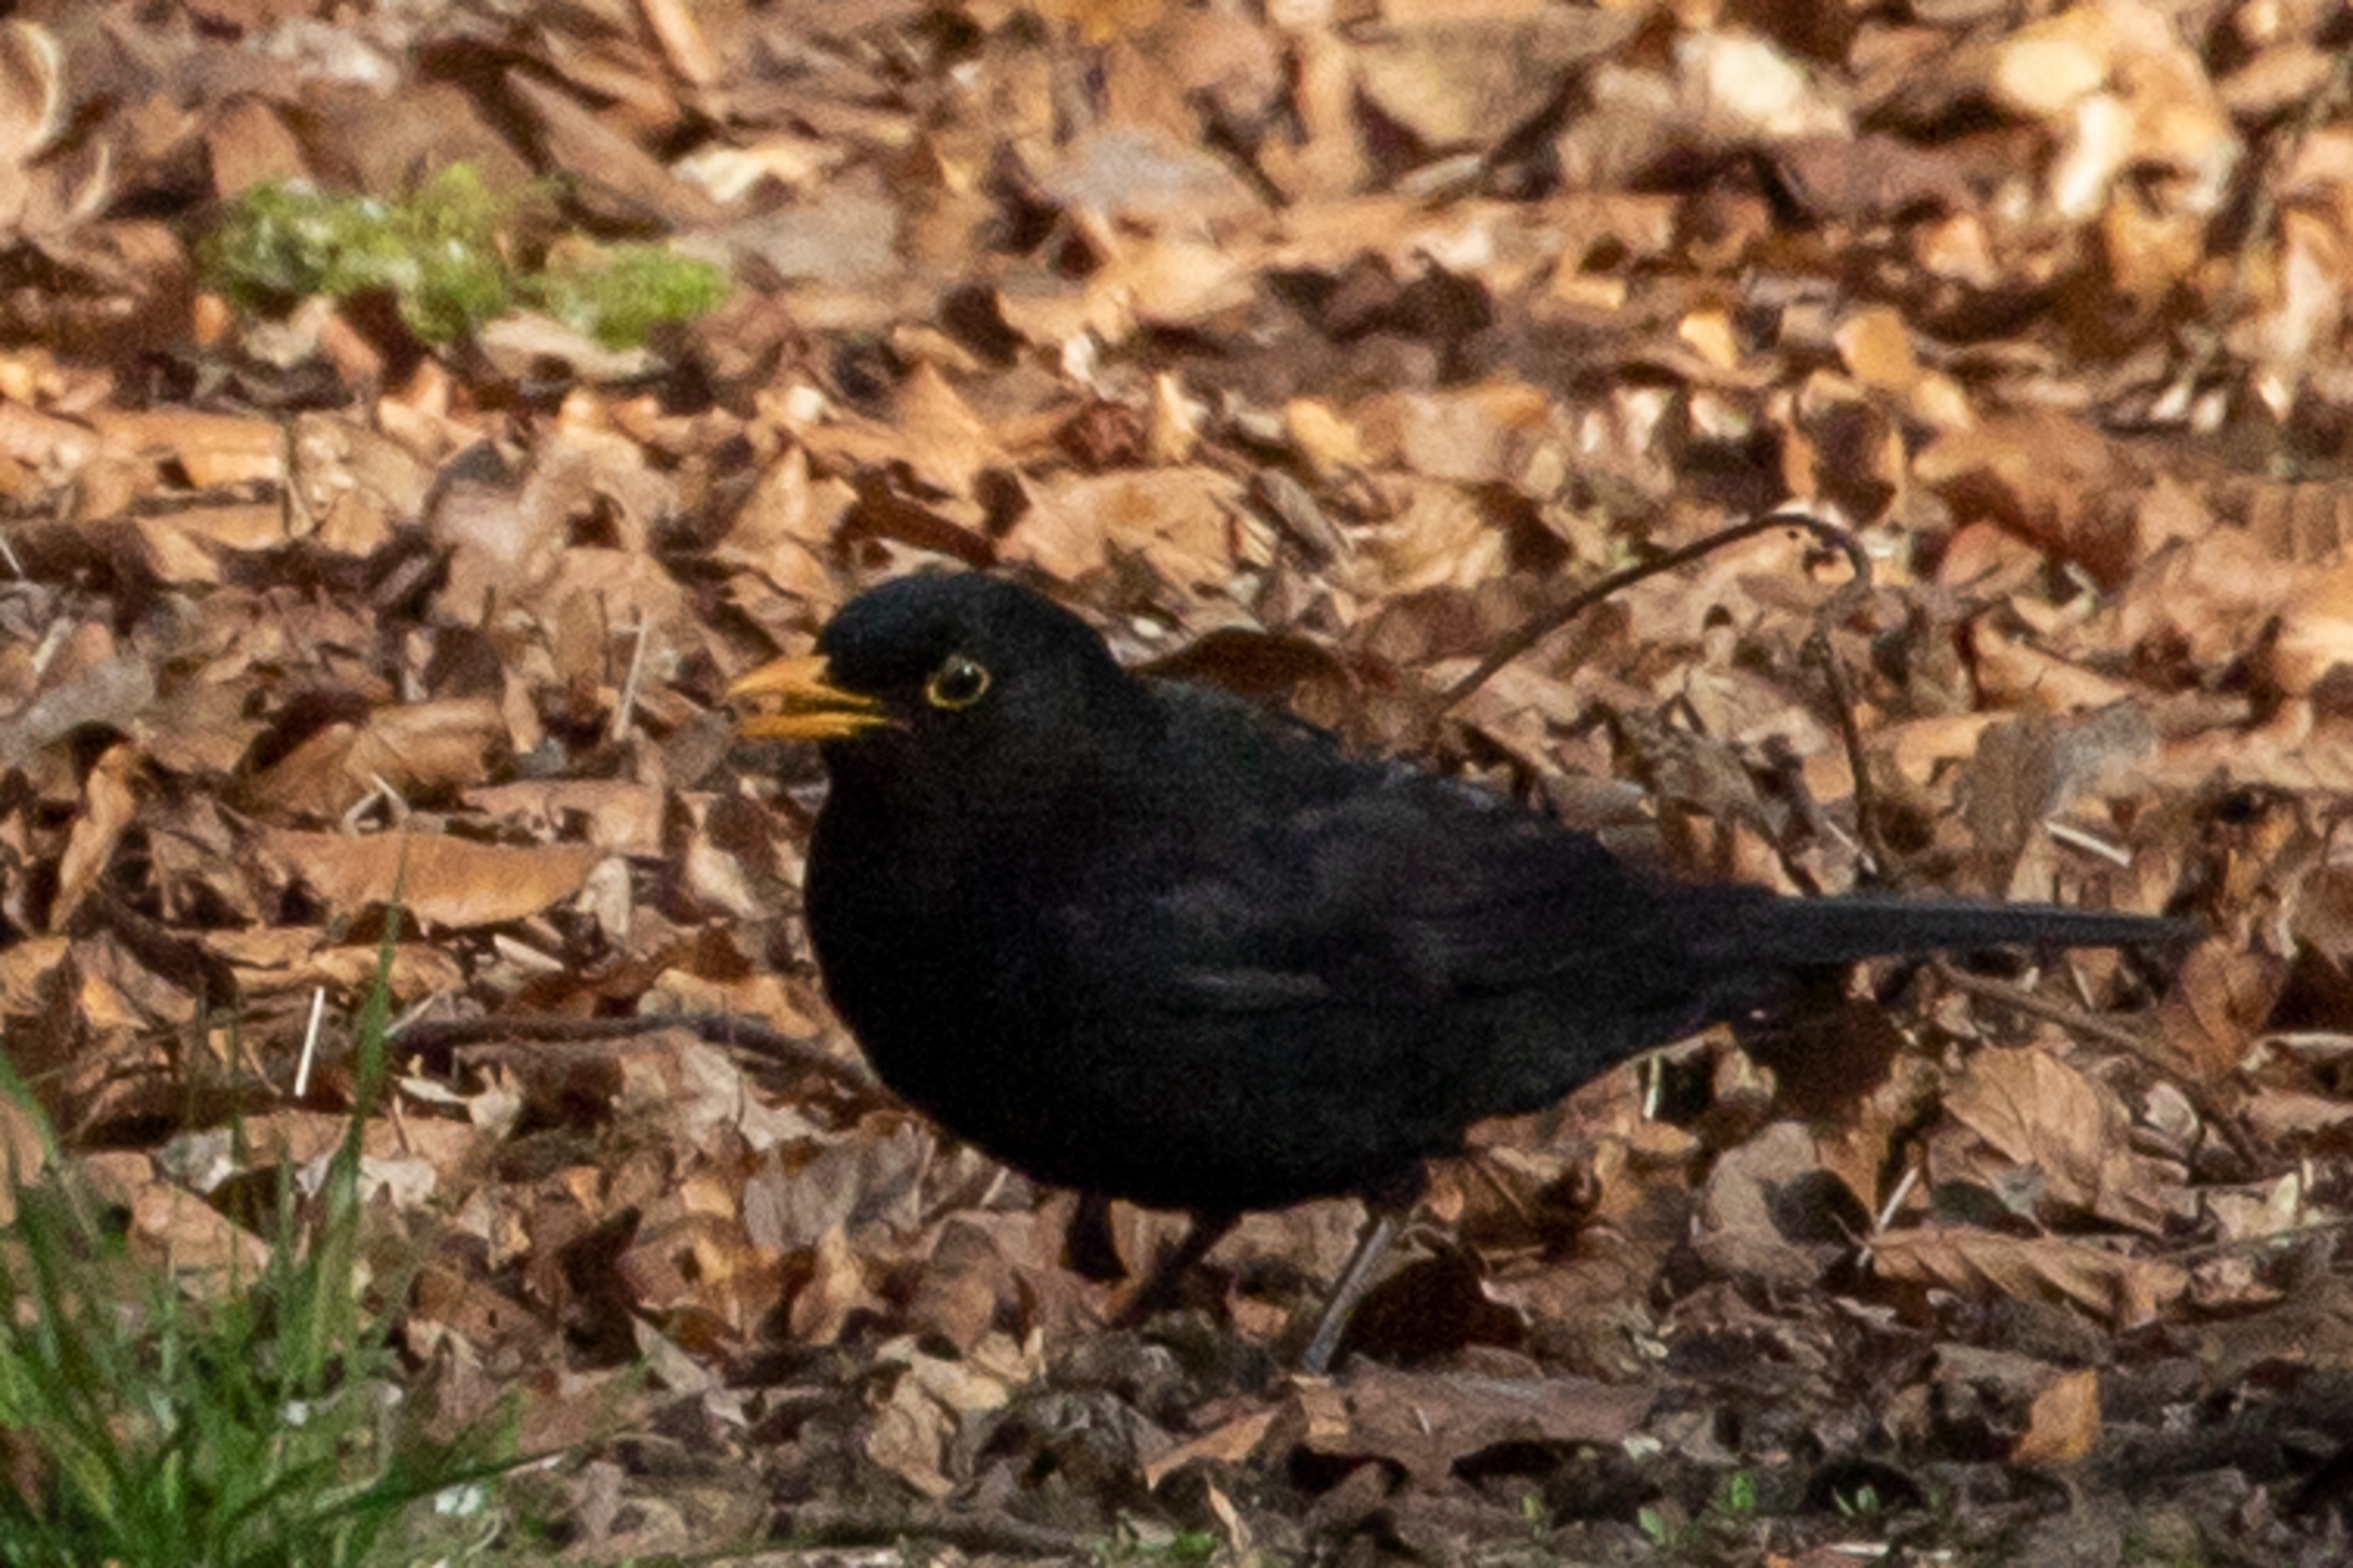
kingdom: Animalia
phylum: Chordata
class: Aves
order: Passeriformes
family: Turdidae
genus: Turdus
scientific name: Turdus merula
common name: Solsort
